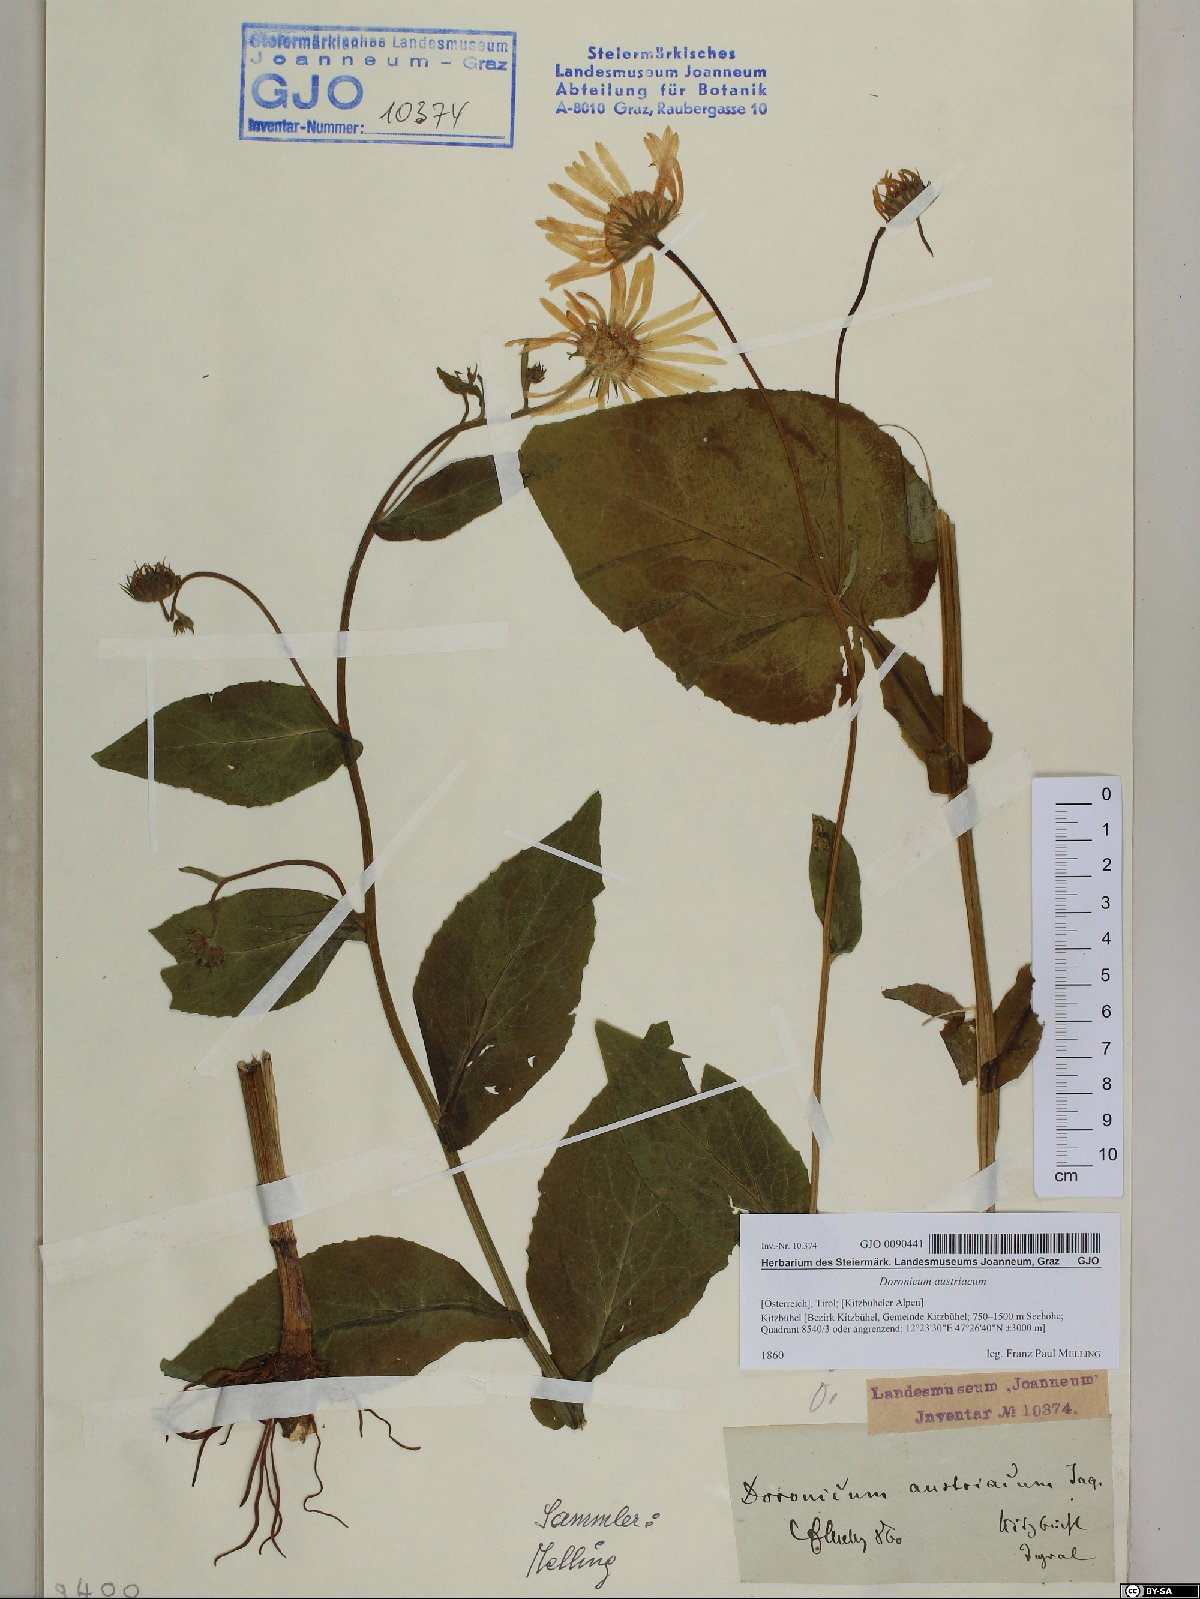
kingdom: Plantae
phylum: Tracheophyta
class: Magnoliopsida
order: Asterales
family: Asteraceae
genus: Doronicum
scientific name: Doronicum austriacum
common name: Austrian leopard's-bane
